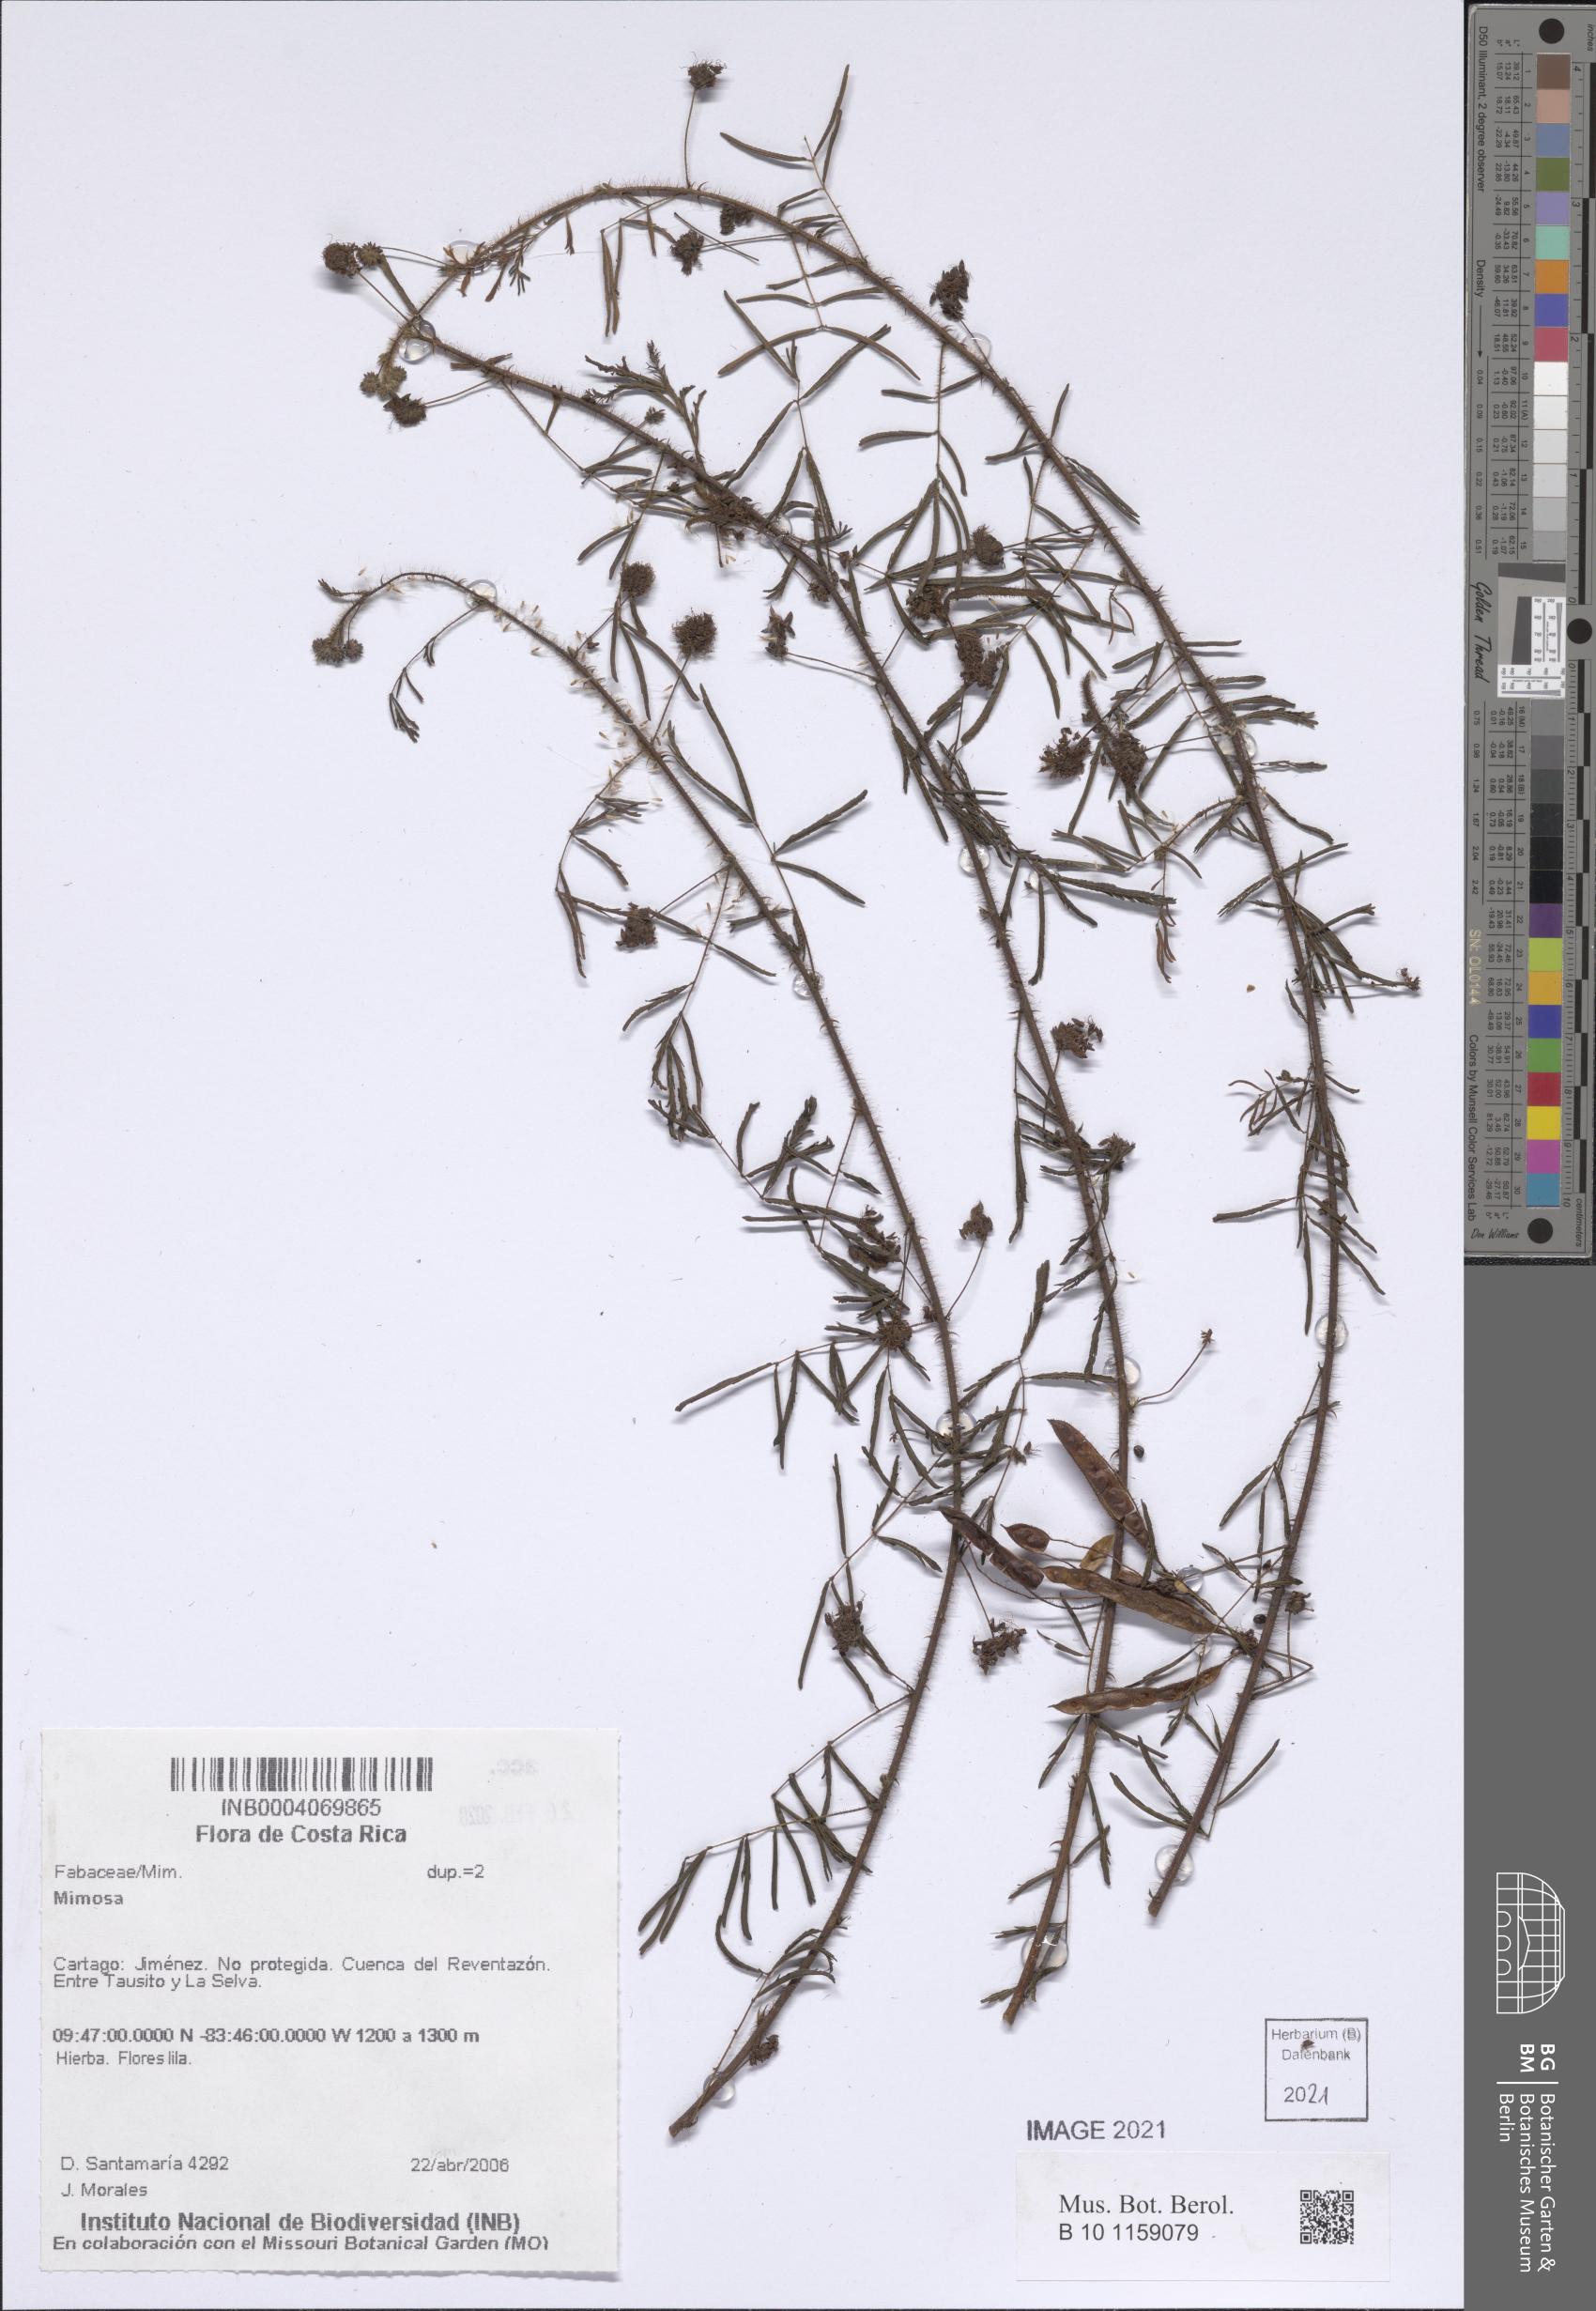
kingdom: Plantae
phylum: Tracheophyta
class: Magnoliopsida
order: Fabales
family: Fabaceae
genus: Mimosa
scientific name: Mimosa
